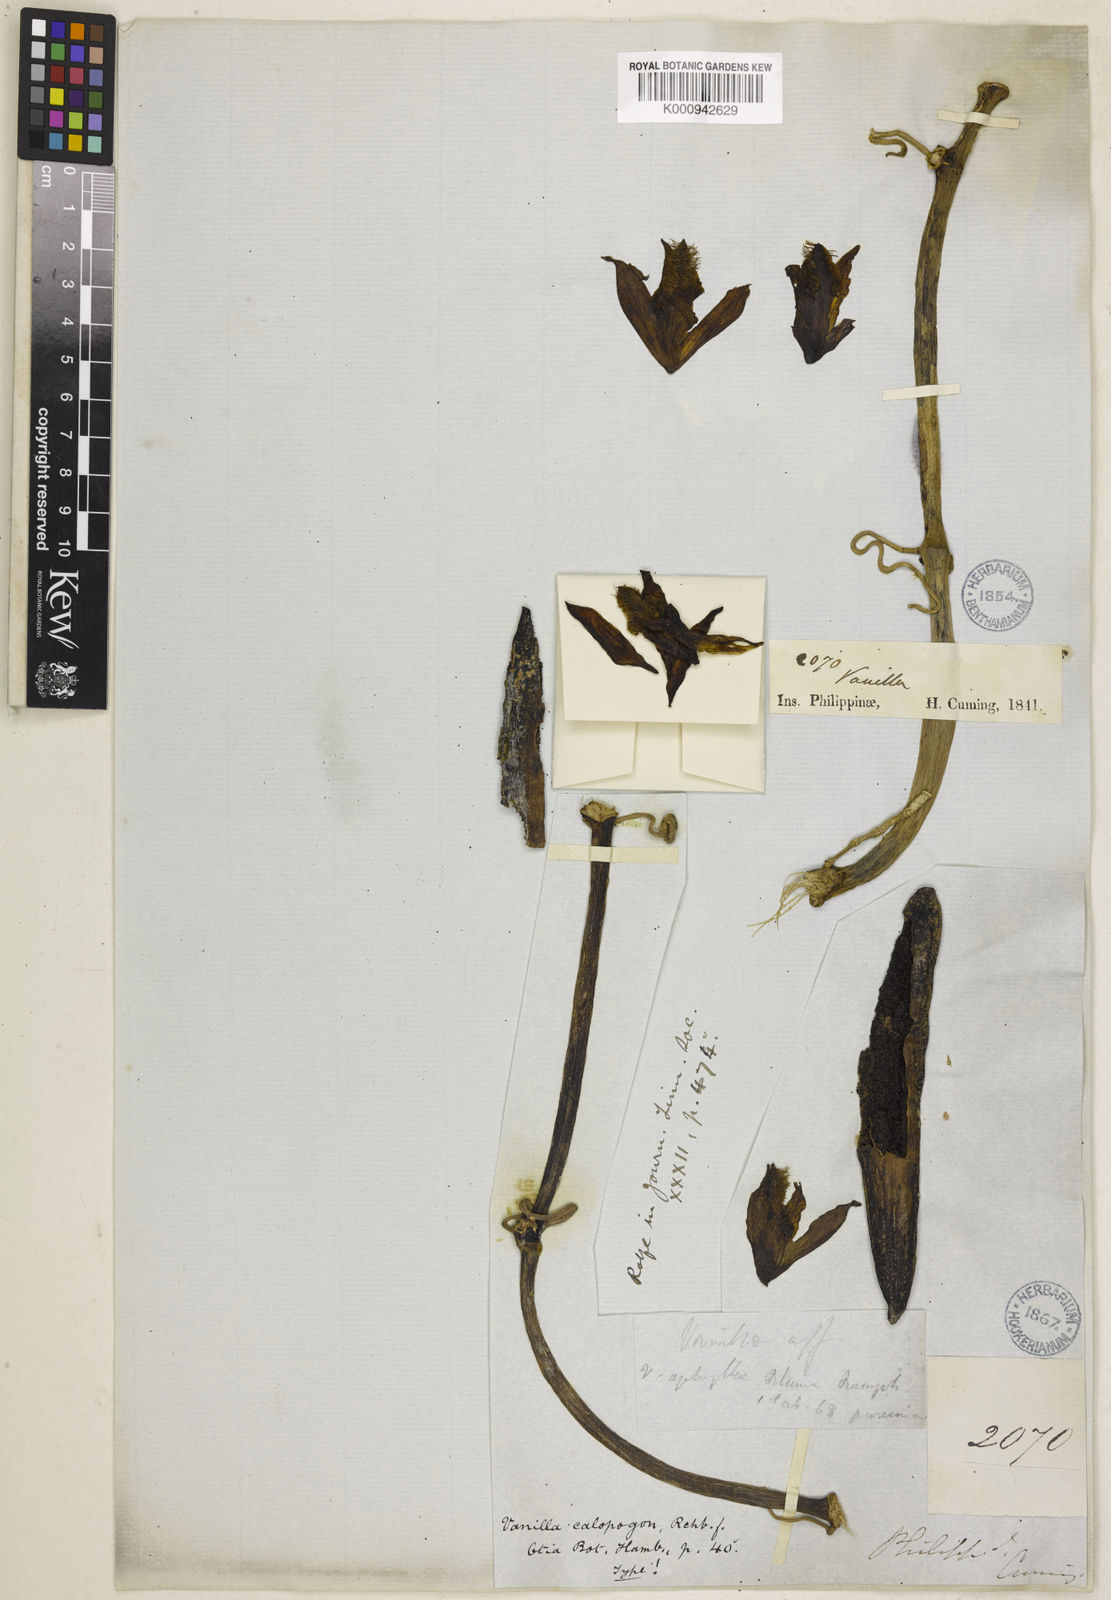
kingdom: Plantae
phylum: Tracheophyta
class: Liliopsida
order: Asparagales
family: Orchidaceae
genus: Vanilla
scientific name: Vanilla aphylla
